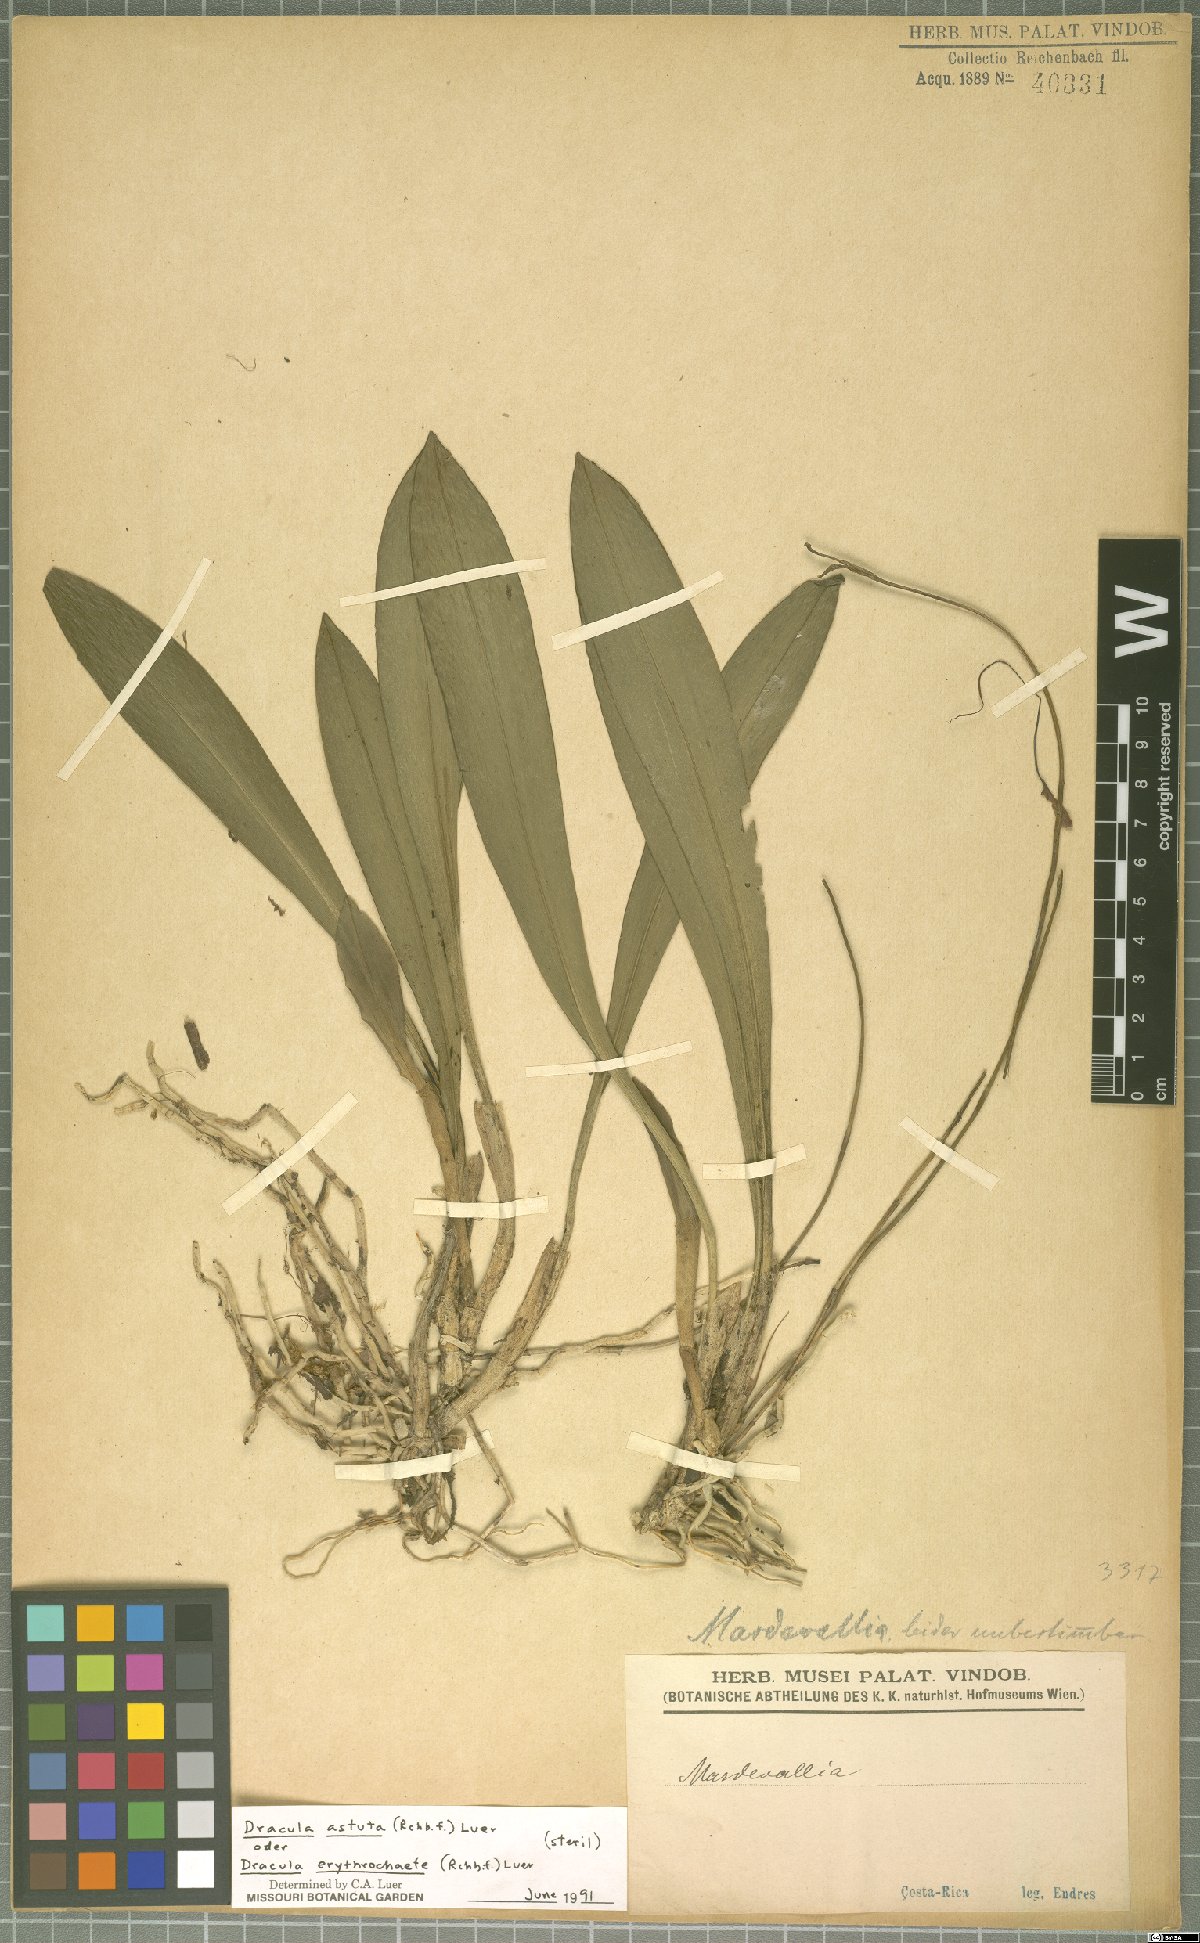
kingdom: Plantae
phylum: Tracheophyta
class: Liliopsida
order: Asparagales
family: Orchidaceae
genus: Dracula
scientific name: Dracula astuta
